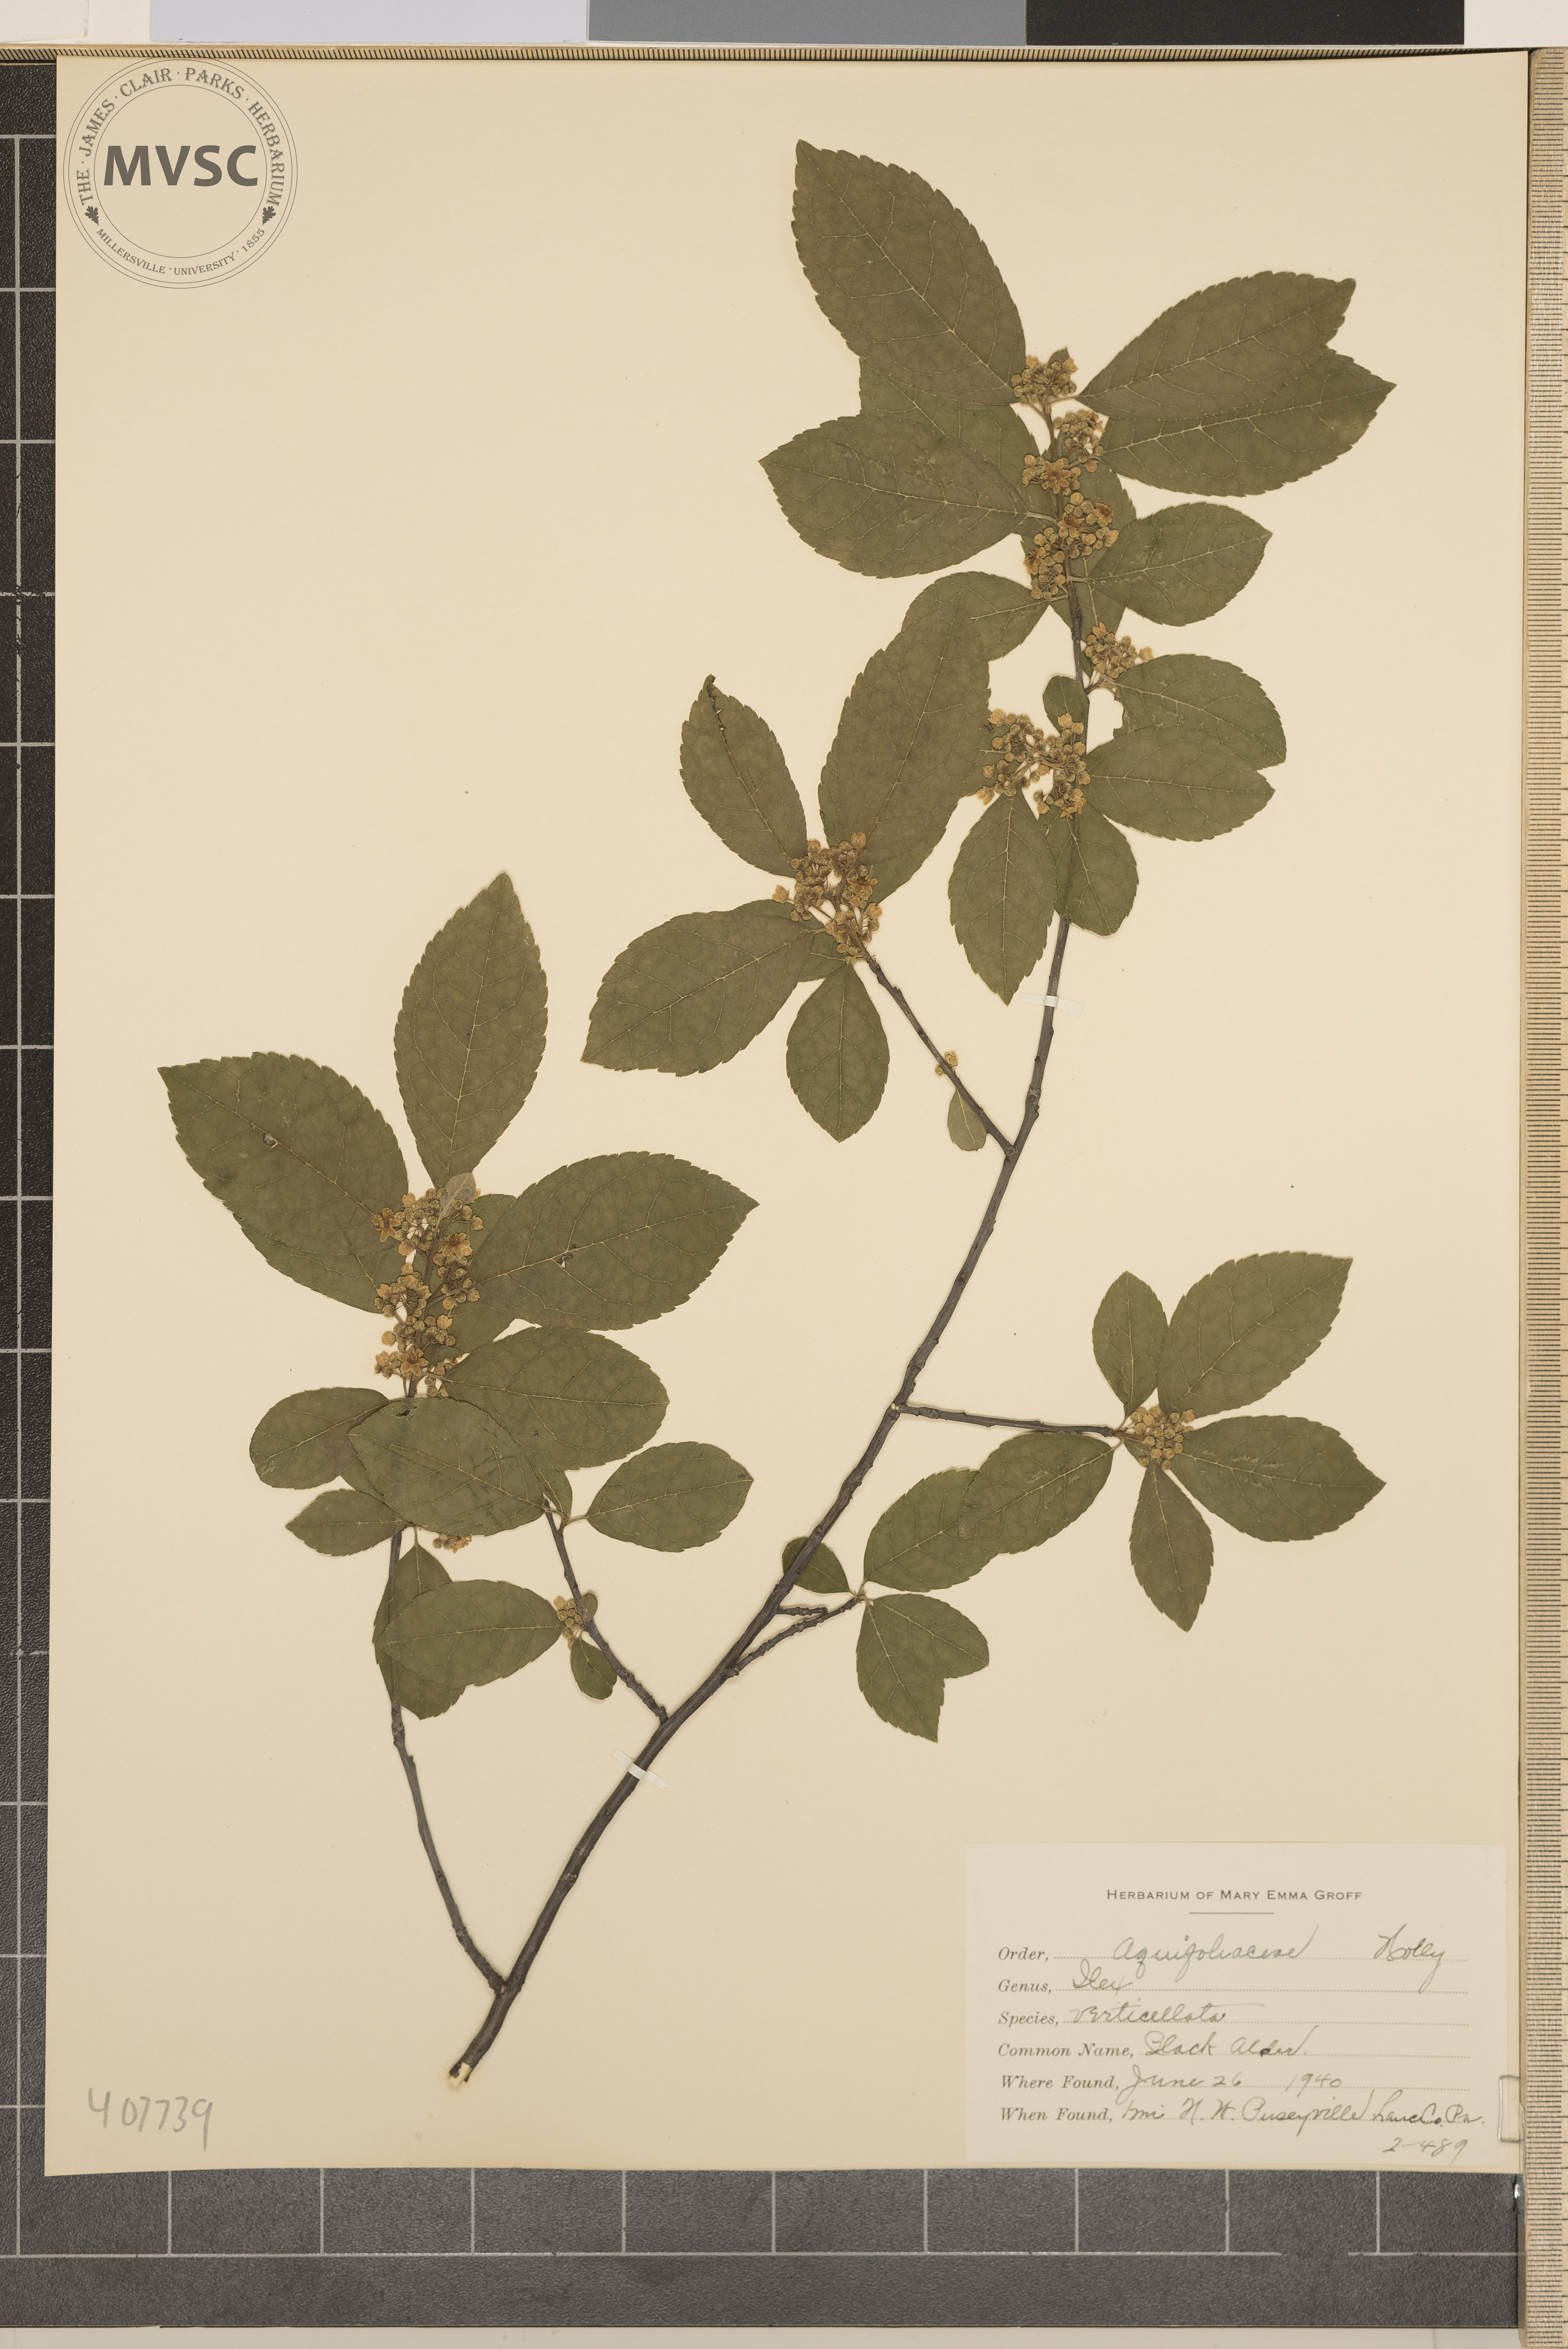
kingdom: Plantae
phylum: Tracheophyta
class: Magnoliopsida
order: Aquifoliales
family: Aquifoliaceae
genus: Ilex
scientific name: Ilex verticillata
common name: black alder
